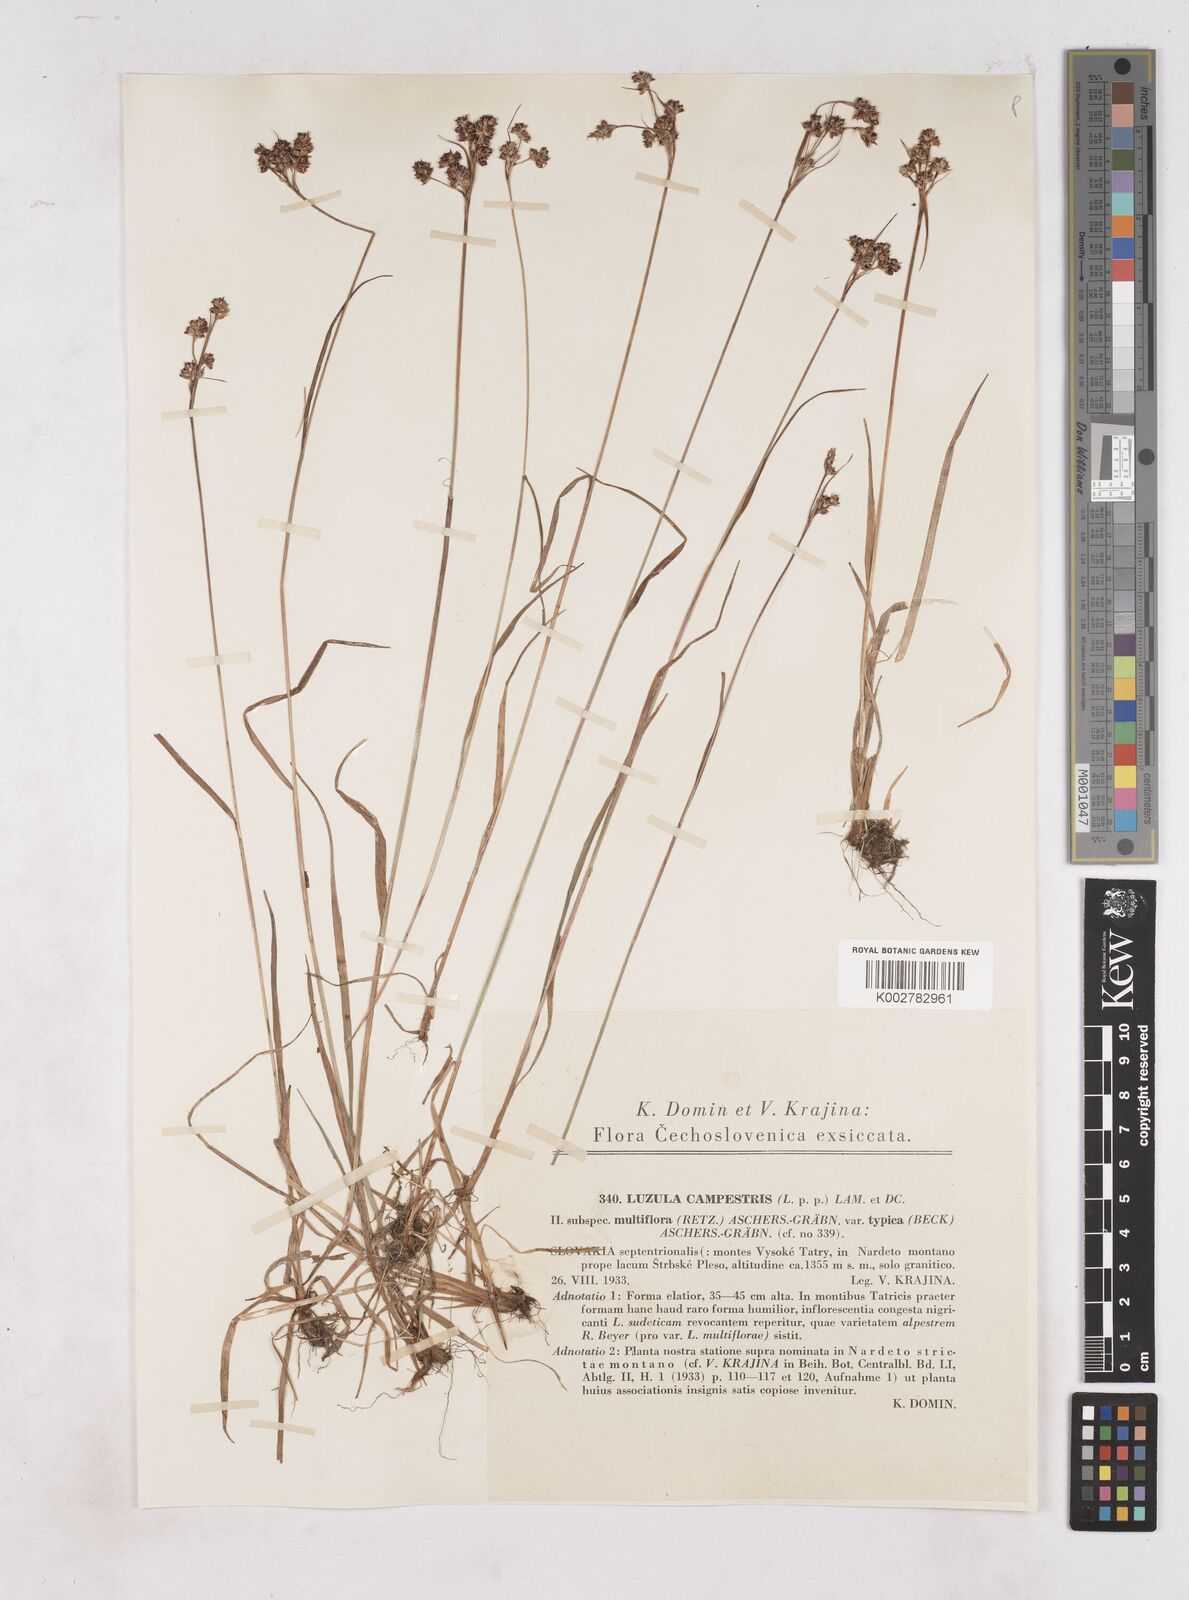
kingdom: Plantae
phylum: Tracheophyta
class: Liliopsida
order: Poales
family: Juncaceae
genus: Luzula
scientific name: Luzula campestris
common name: Field wood-rush
